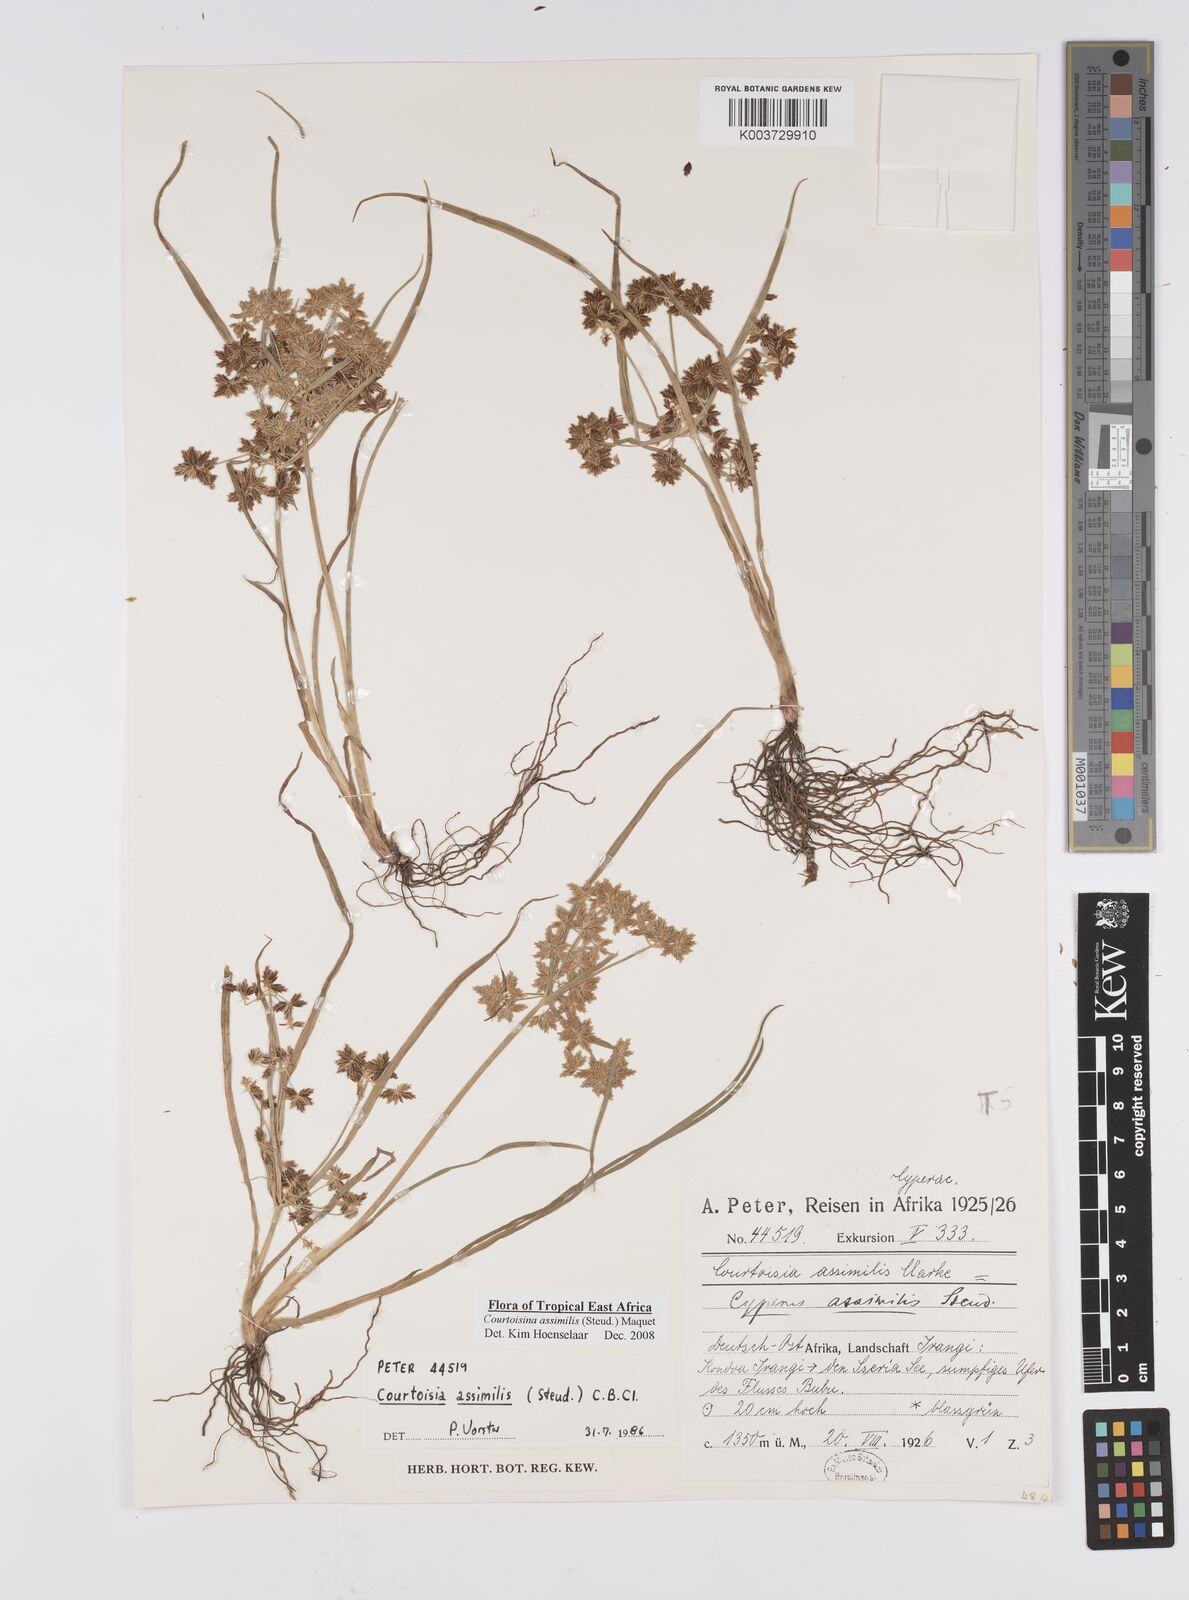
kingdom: Plantae
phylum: Tracheophyta
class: Liliopsida
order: Poales
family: Cyperaceae
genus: Cyperus
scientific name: Cyperus assimilis
